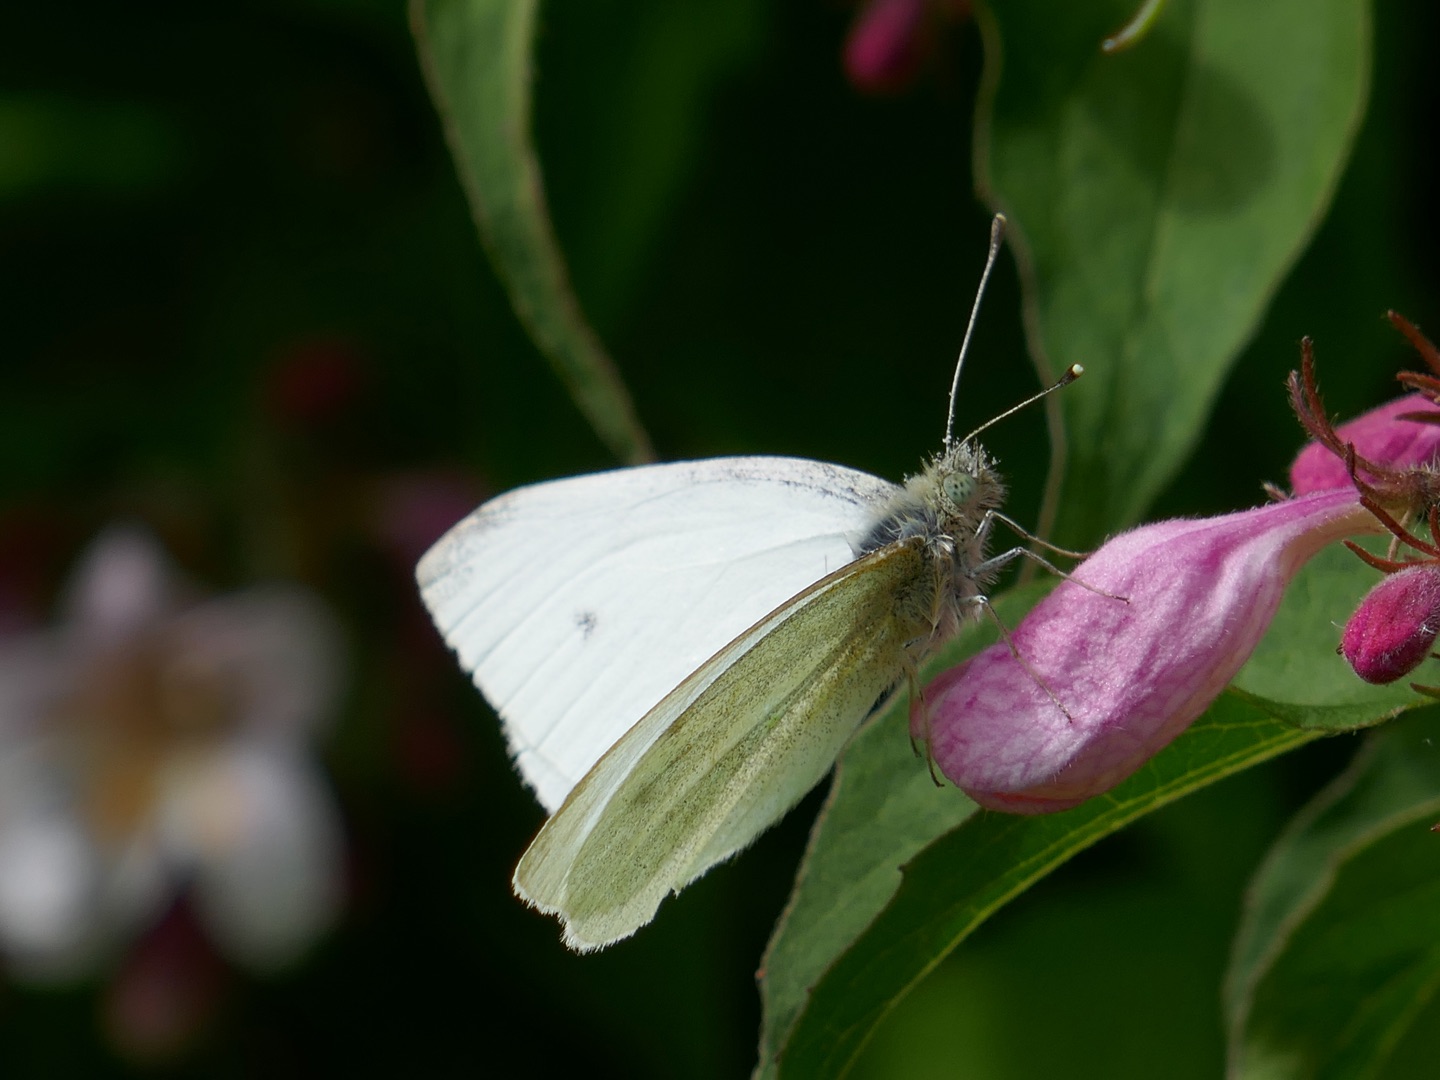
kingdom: Animalia
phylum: Arthropoda
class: Insecta
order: Lepidoptera
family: Pieridae
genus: Pieris
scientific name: Pieris rapae
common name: Lille kålsommerfugl
